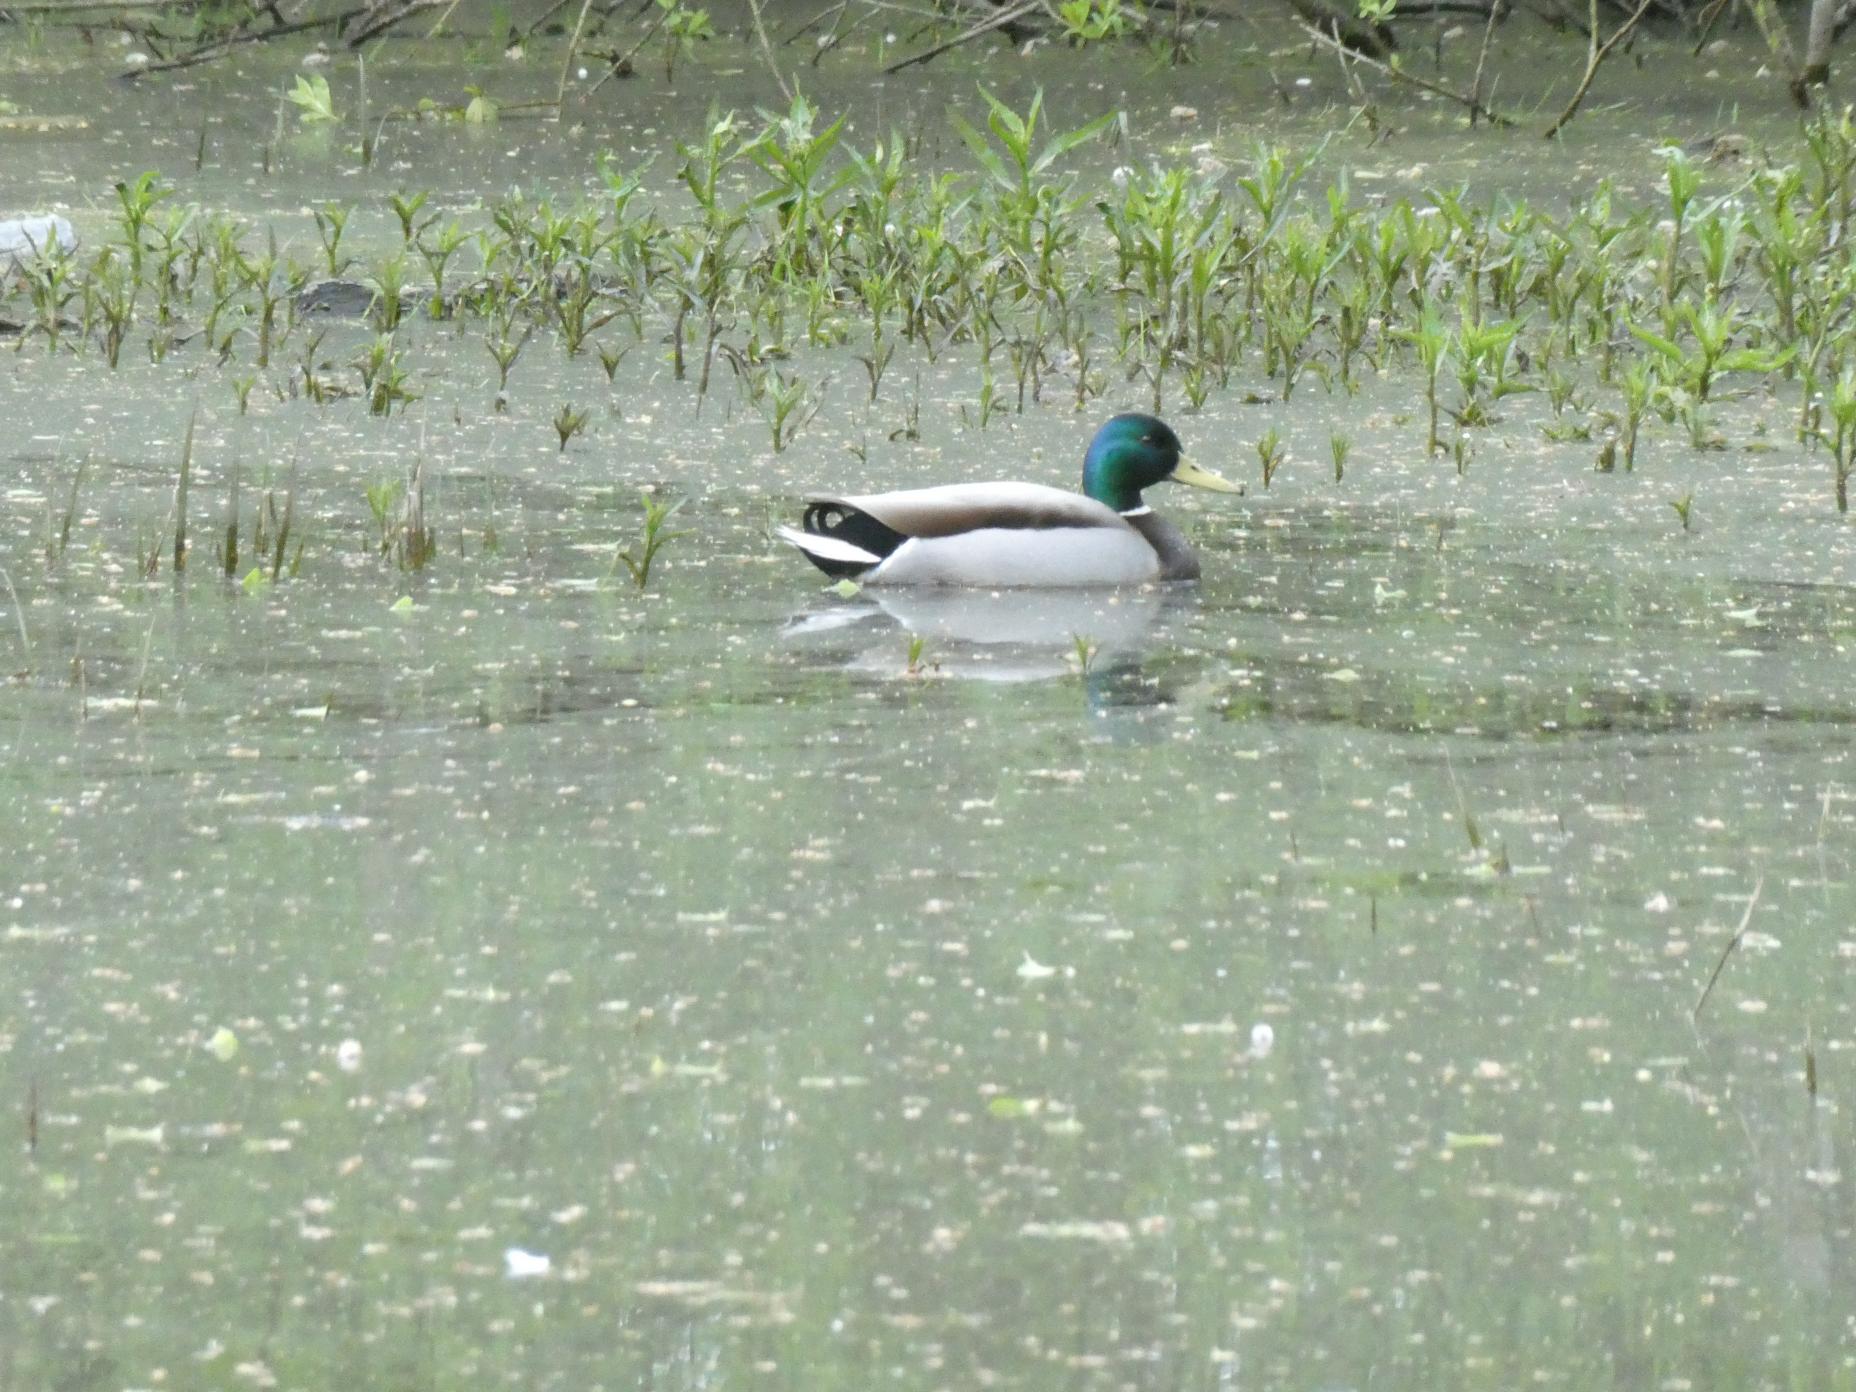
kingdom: Animalia
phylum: Chordata
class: Aves
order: Anseriformes
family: Anatidae
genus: Anas
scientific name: Anas platyrhynchos
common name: Gråand
